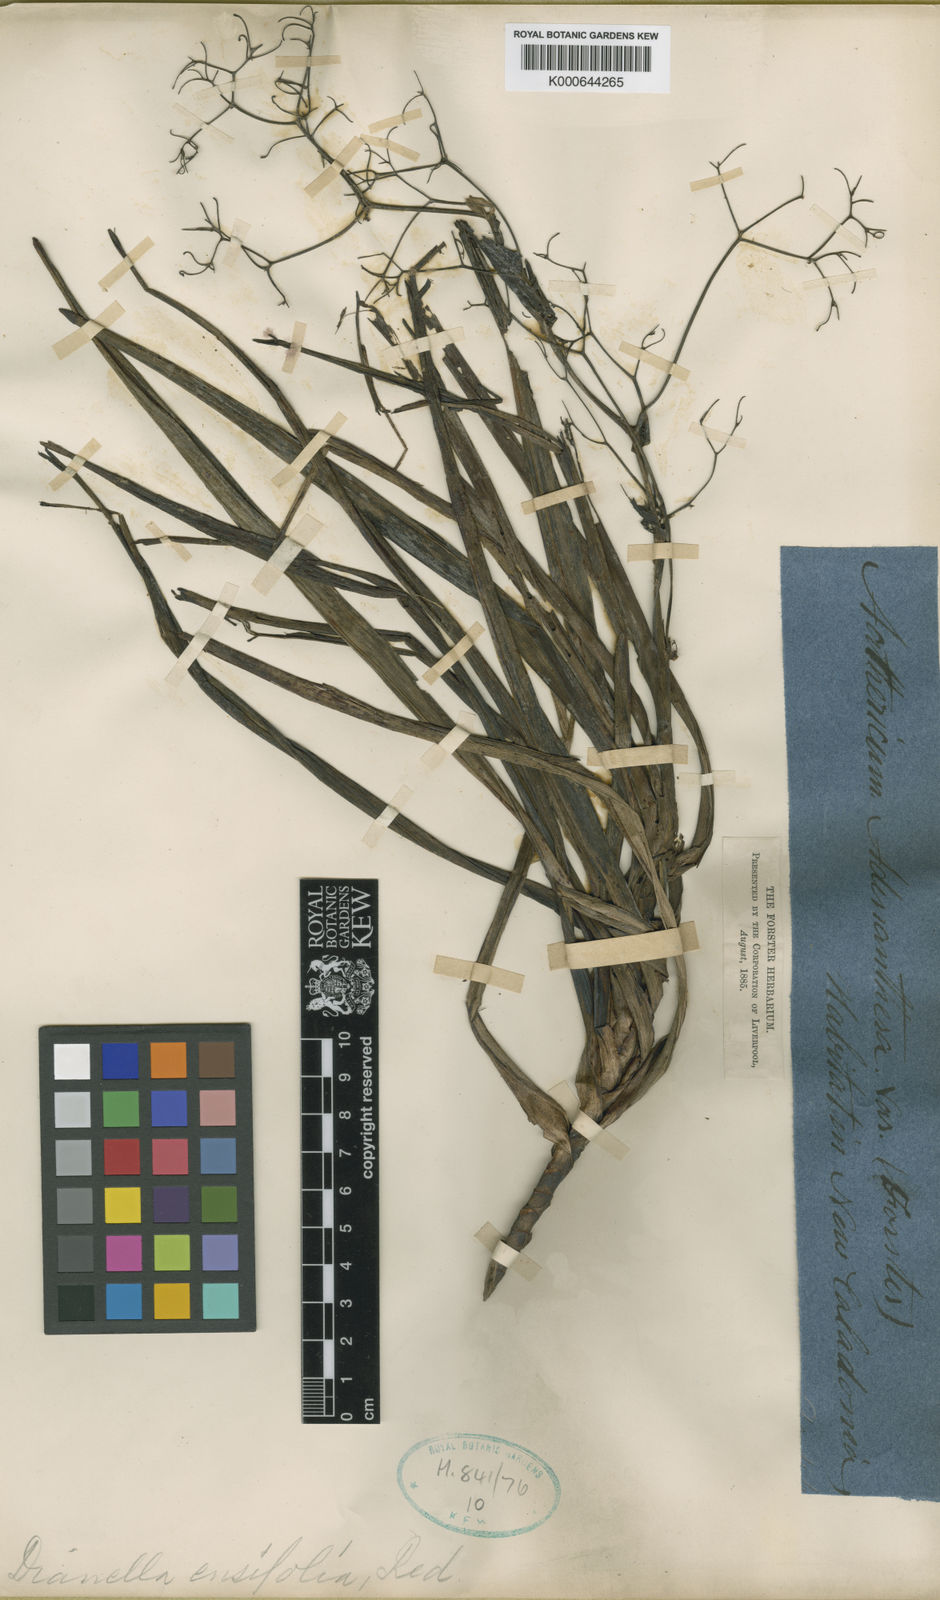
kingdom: Plantae
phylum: Tracheophyta
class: Liliopsida
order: Asparagales
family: Asphodelaceae
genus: Rhuacophila
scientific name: Rhuacophila javanica
